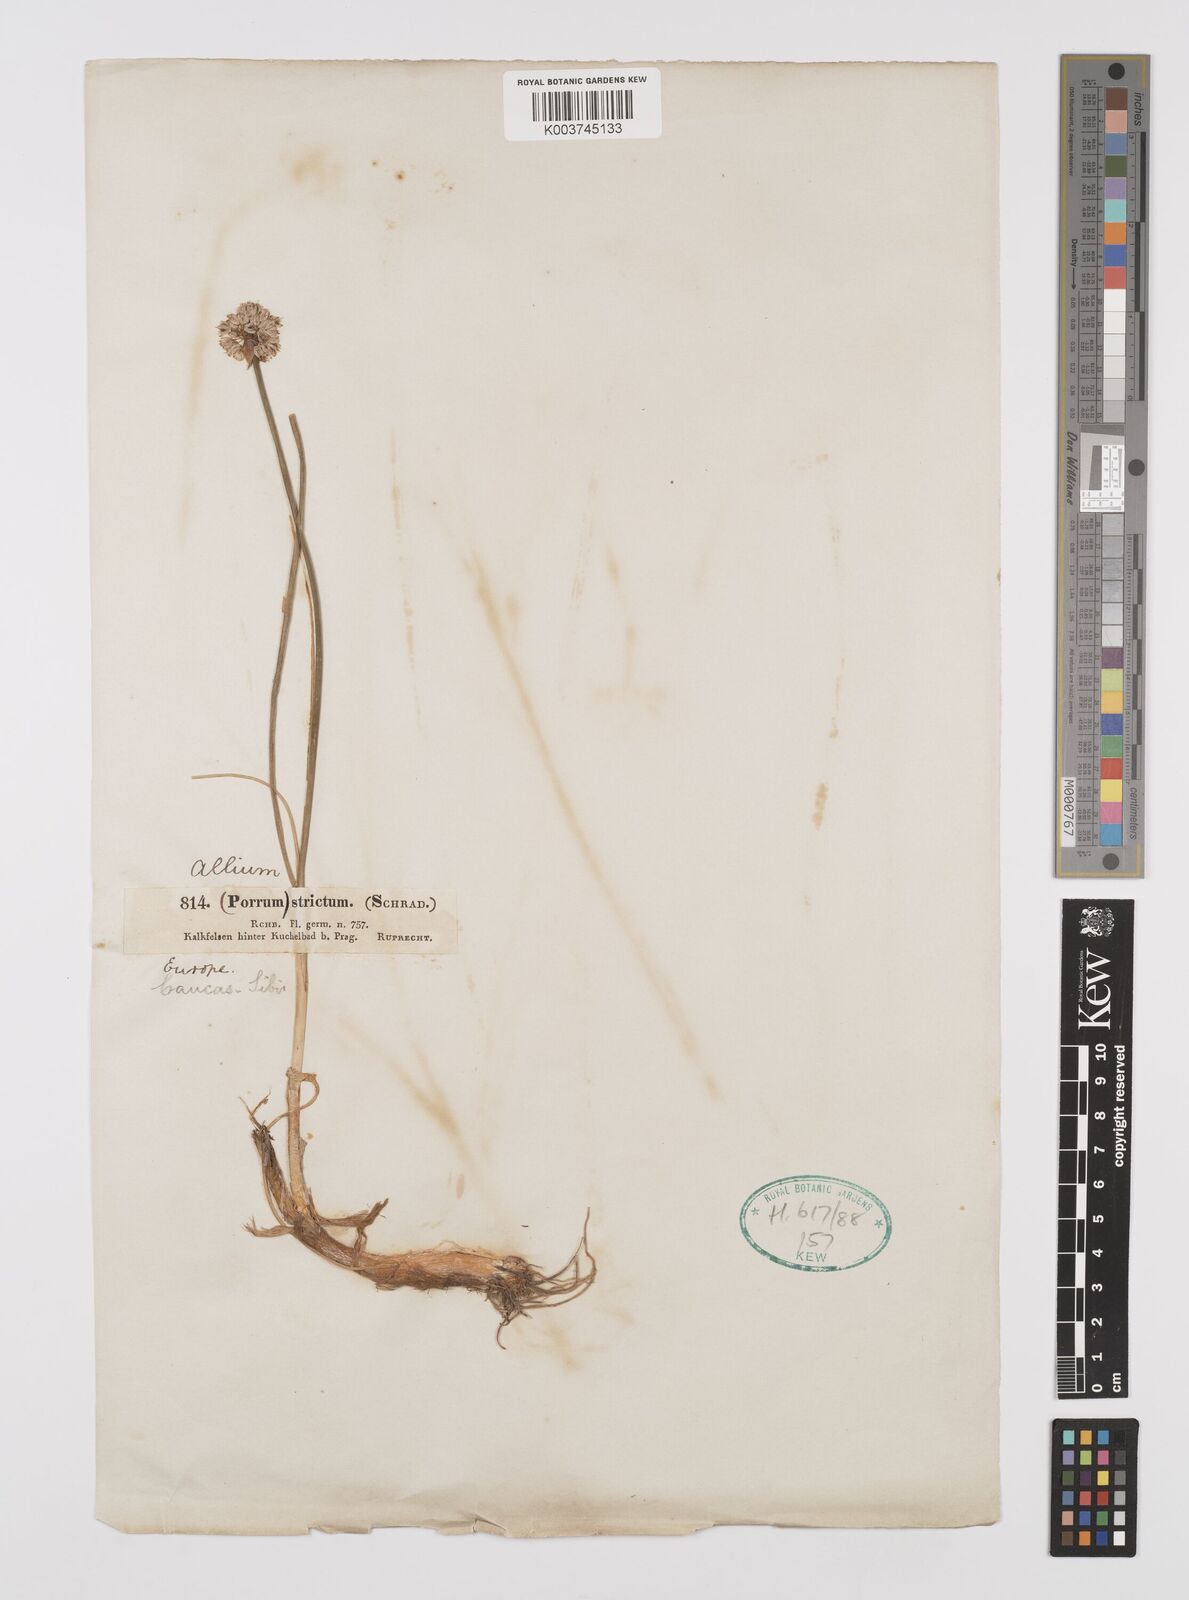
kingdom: Plantae
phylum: Tracheophyta
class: Liliopsida
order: Asparagales
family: Amaryllidaceae
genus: Allium
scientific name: Allium strictum
